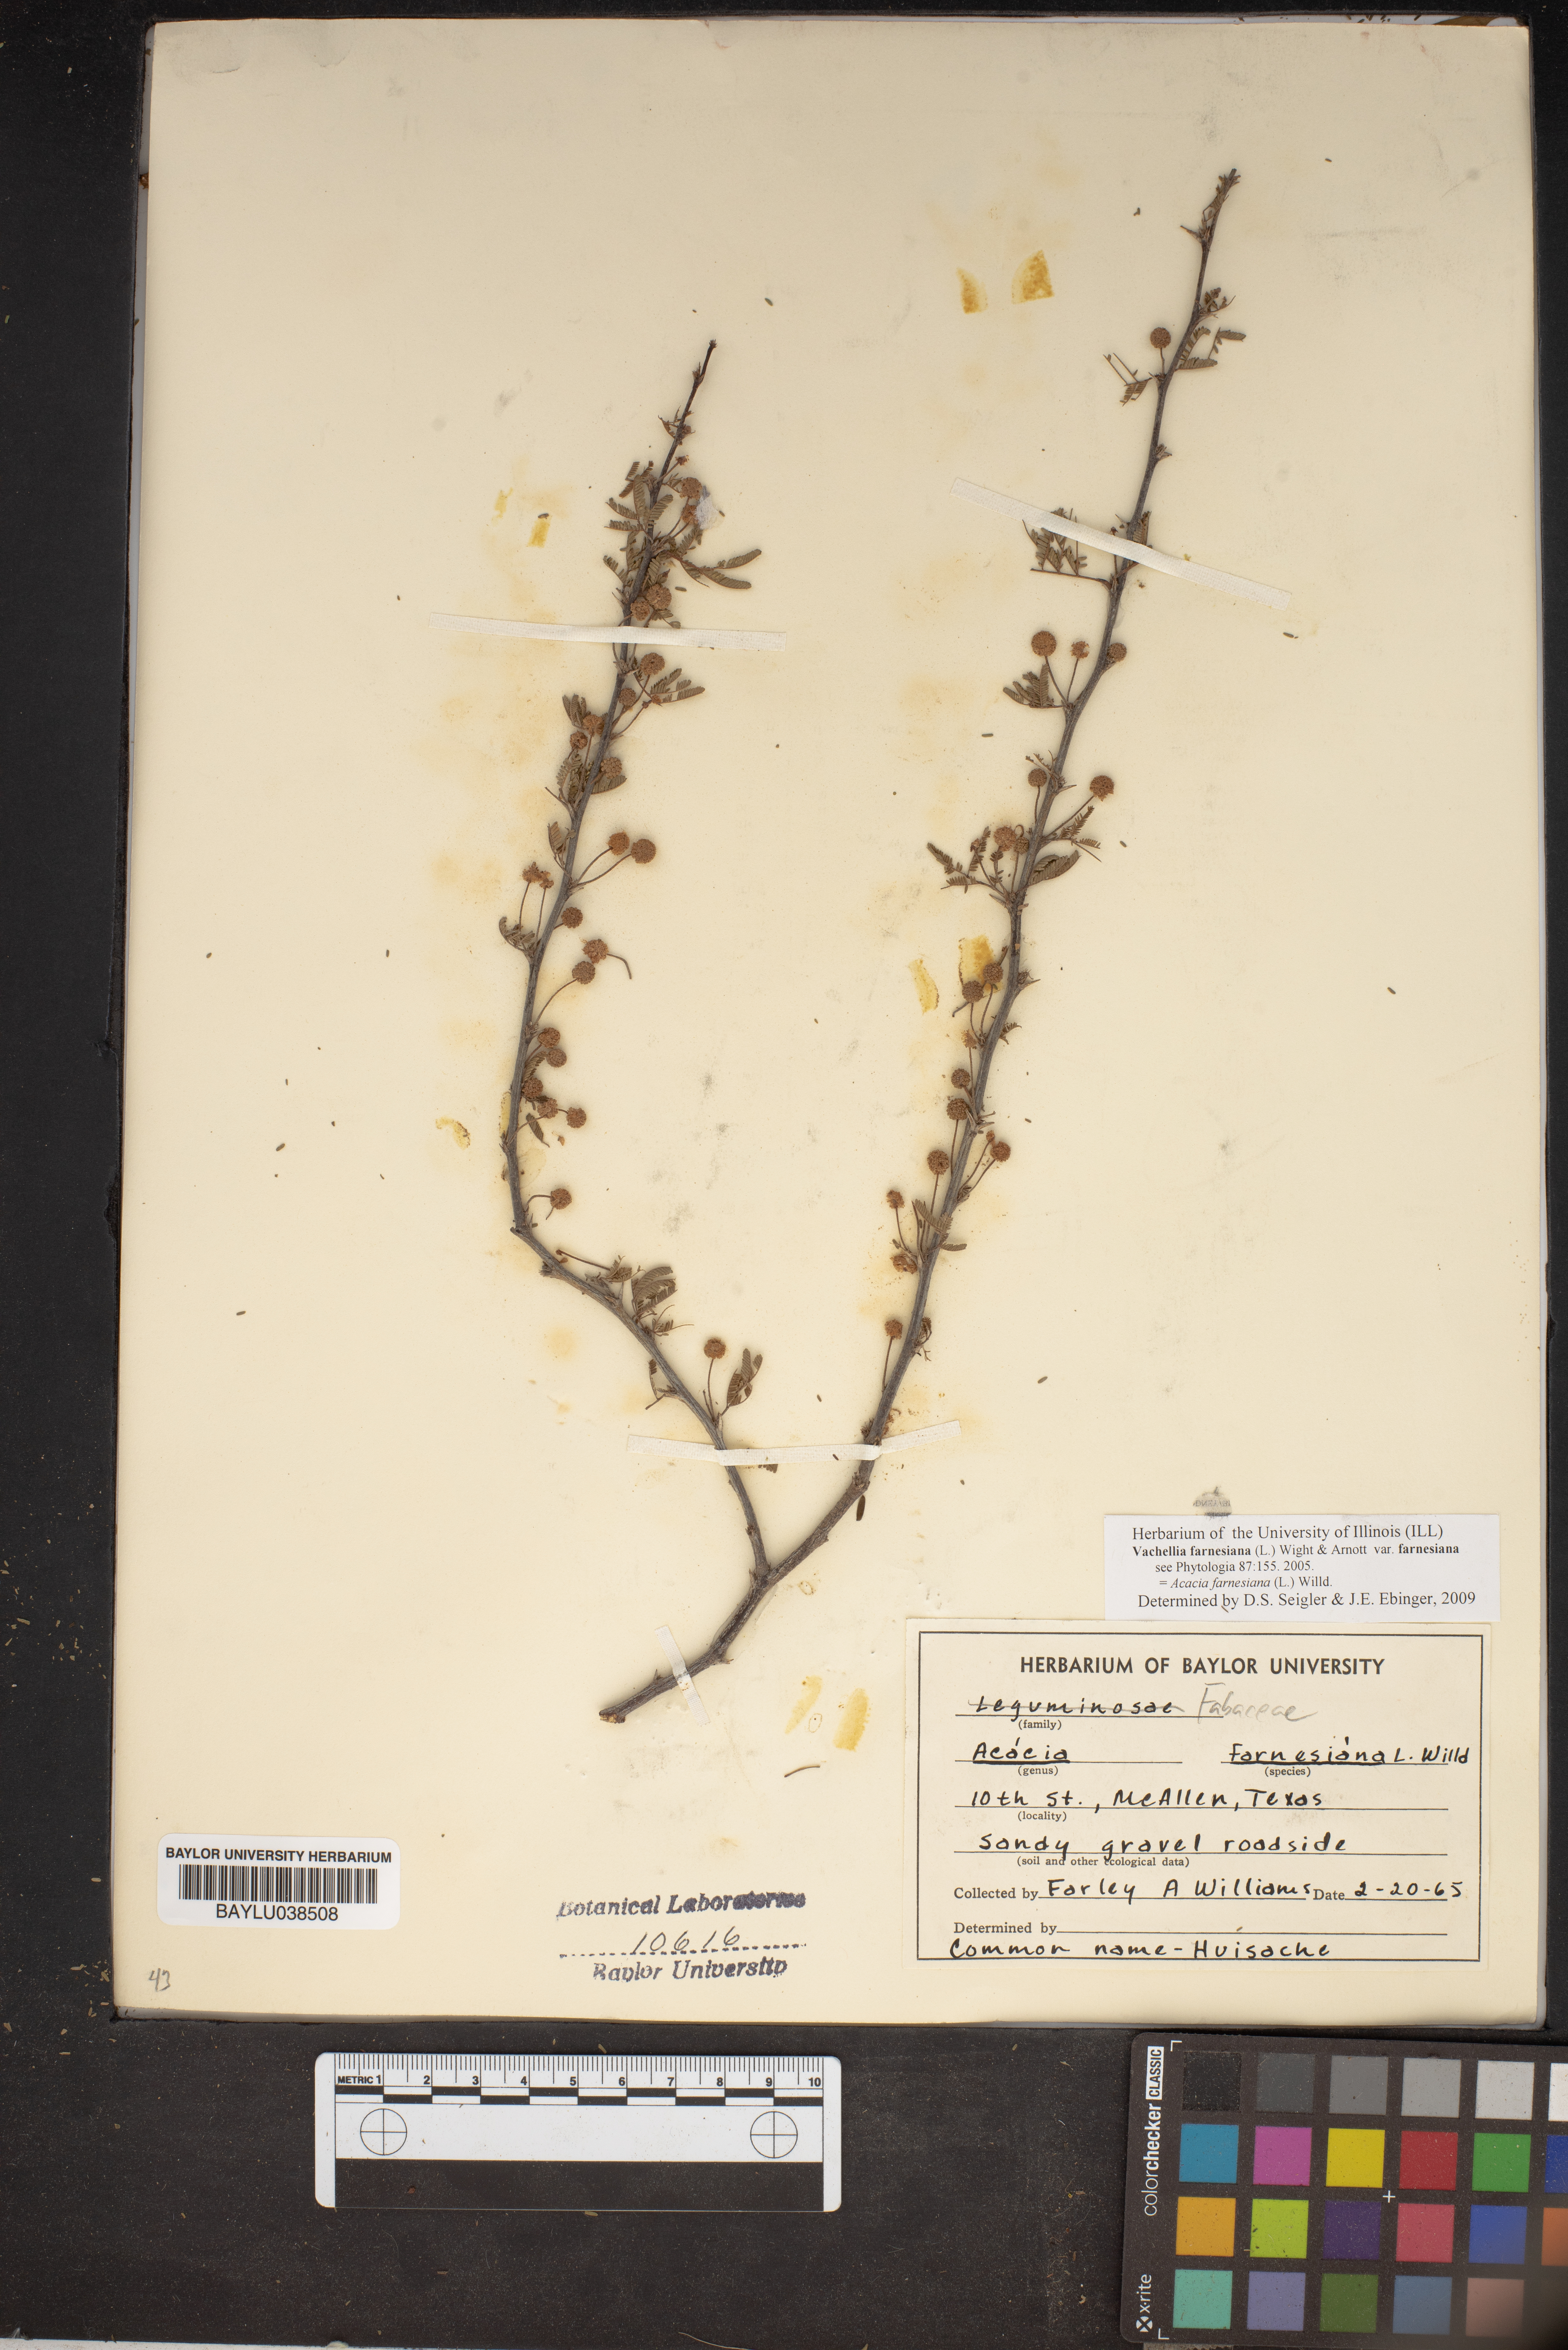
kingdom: Plantae
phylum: Tracheophyta
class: Magnoliopsida
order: Fabales
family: Fabaceae
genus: Vachellia
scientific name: Vachellia farnesiana
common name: Sweet acacia
